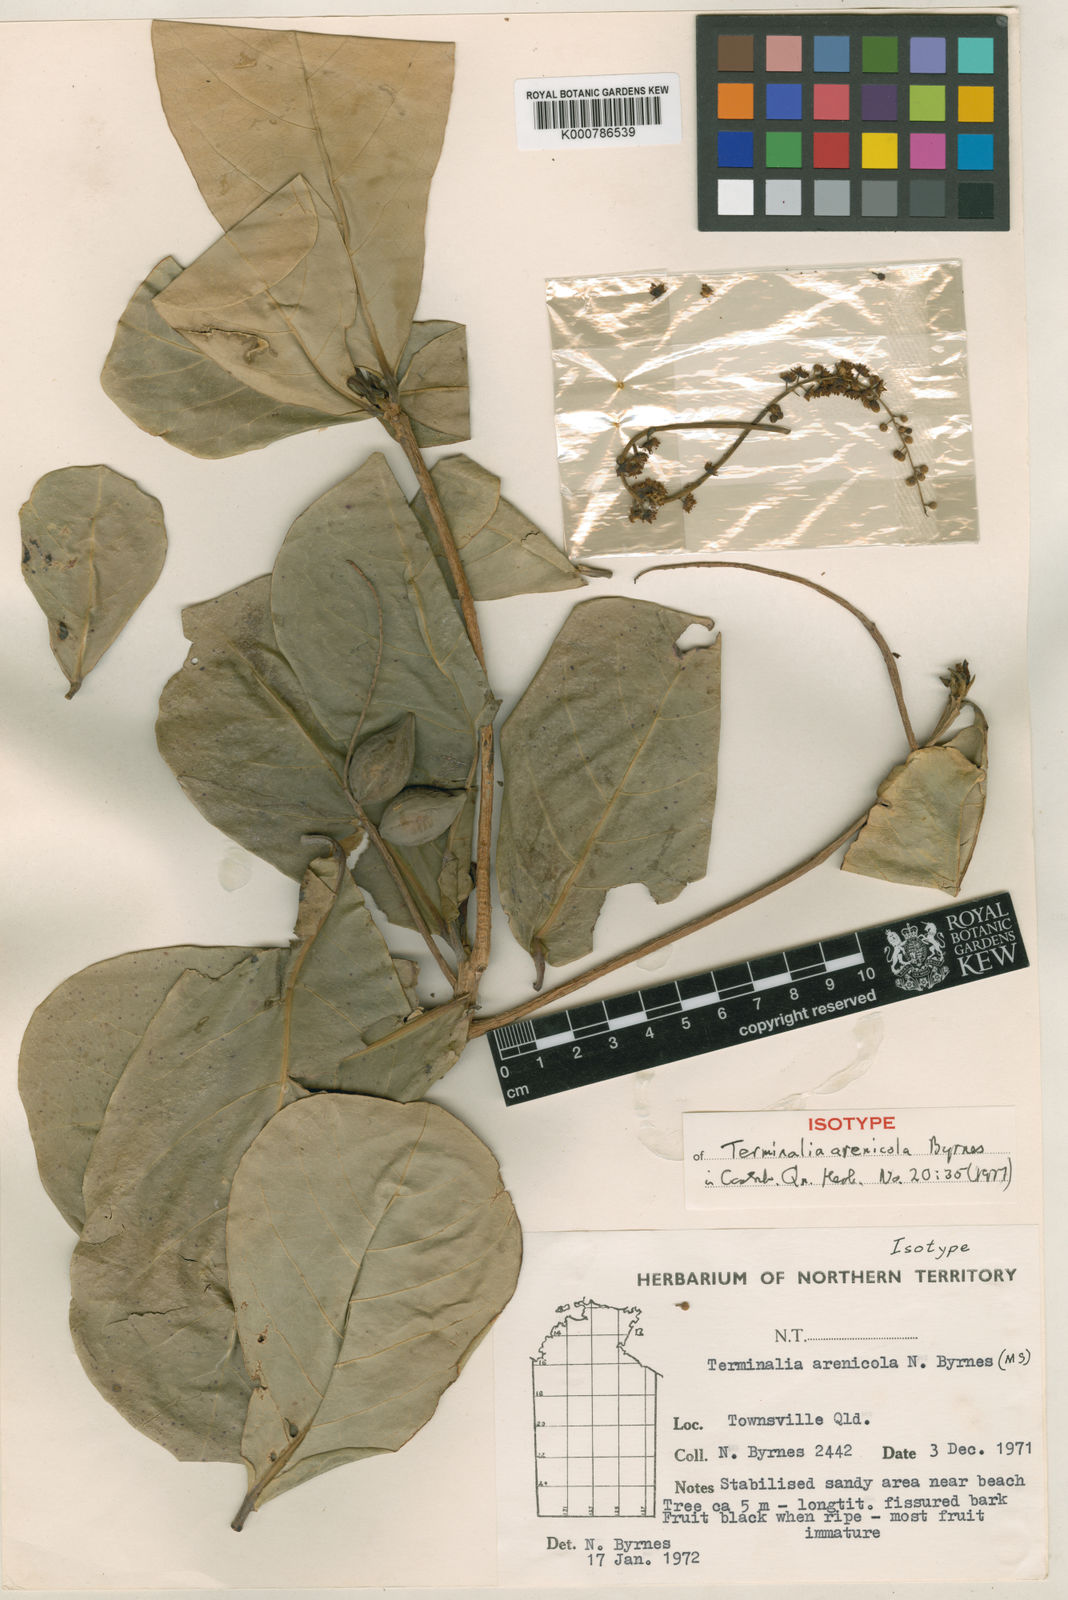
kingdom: Plantae
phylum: Tracheophyta
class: Magnoliopsida
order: Myrtales
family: Combretaceae
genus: Terminalia
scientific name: Terminalia arenicola
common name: Brown damson
